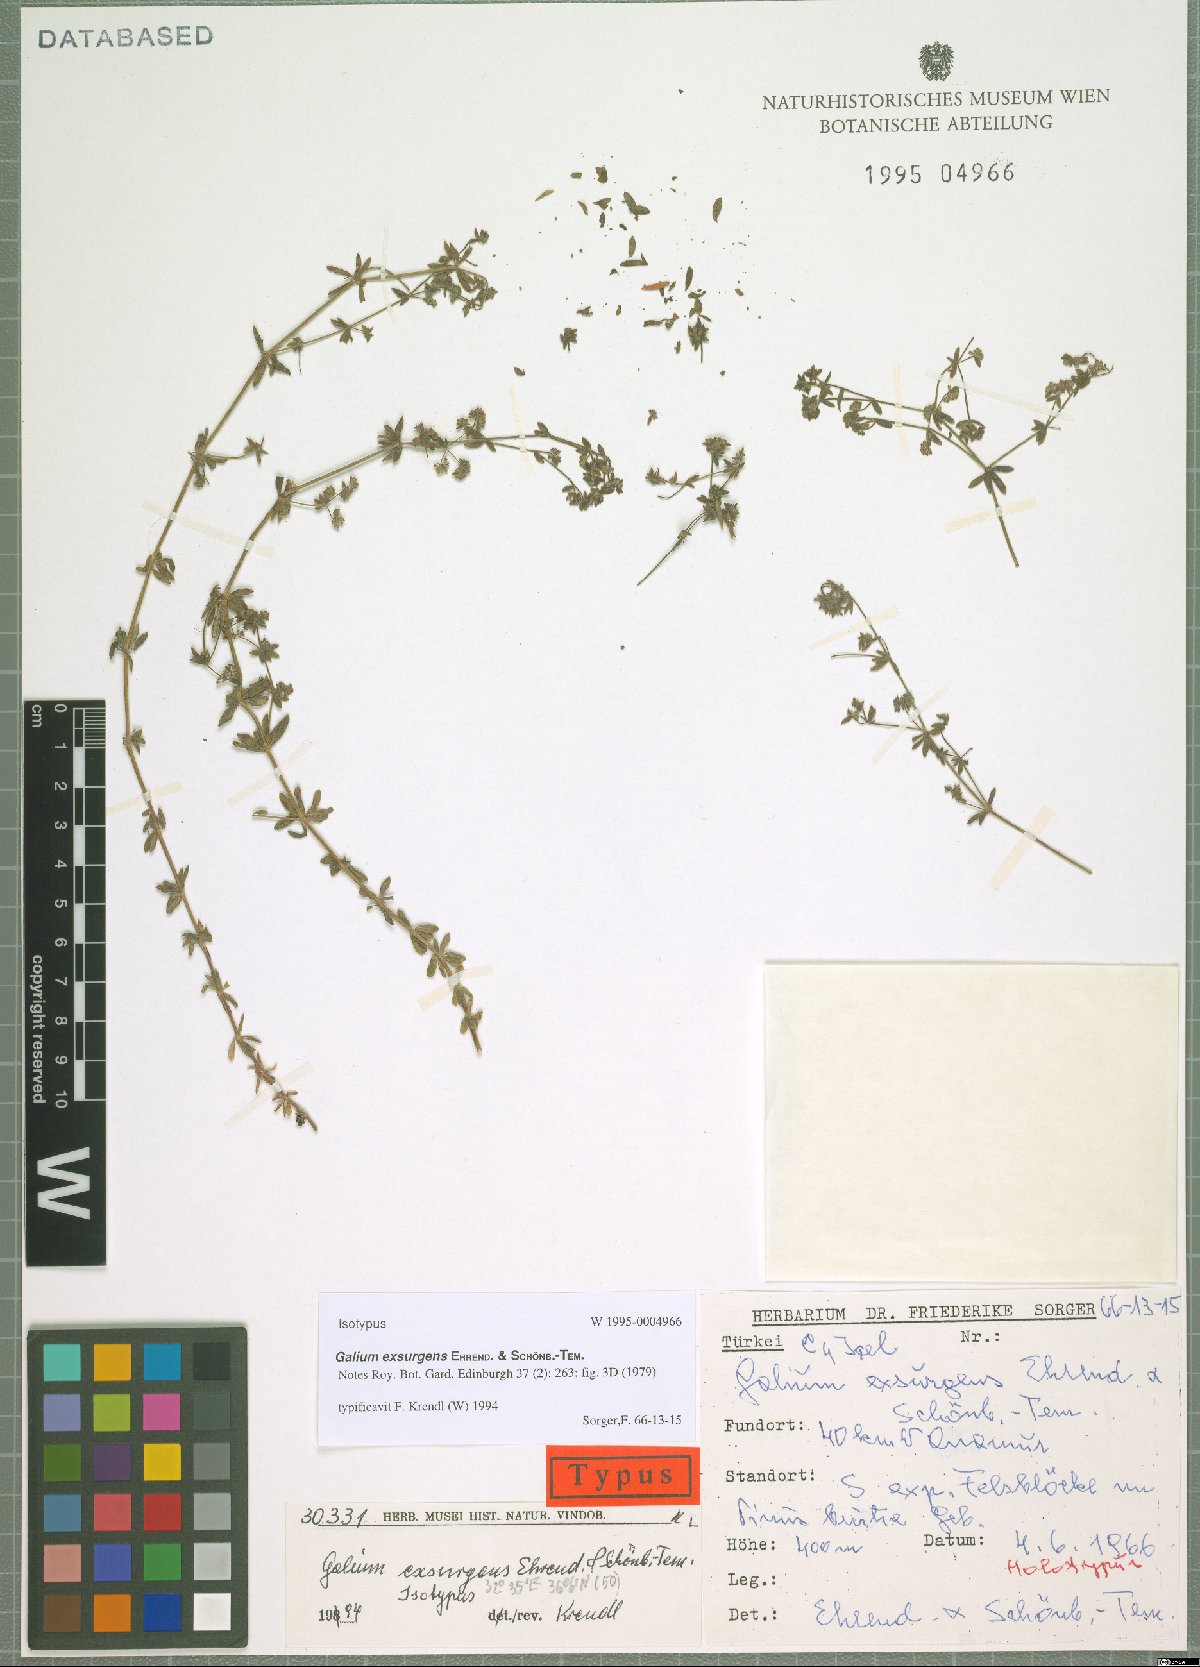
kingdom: Plantae
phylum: Tracheophyta
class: Magnoliopsida
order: Gentianales
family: Rubiaceae
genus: Galium
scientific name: Galium exsurgens
